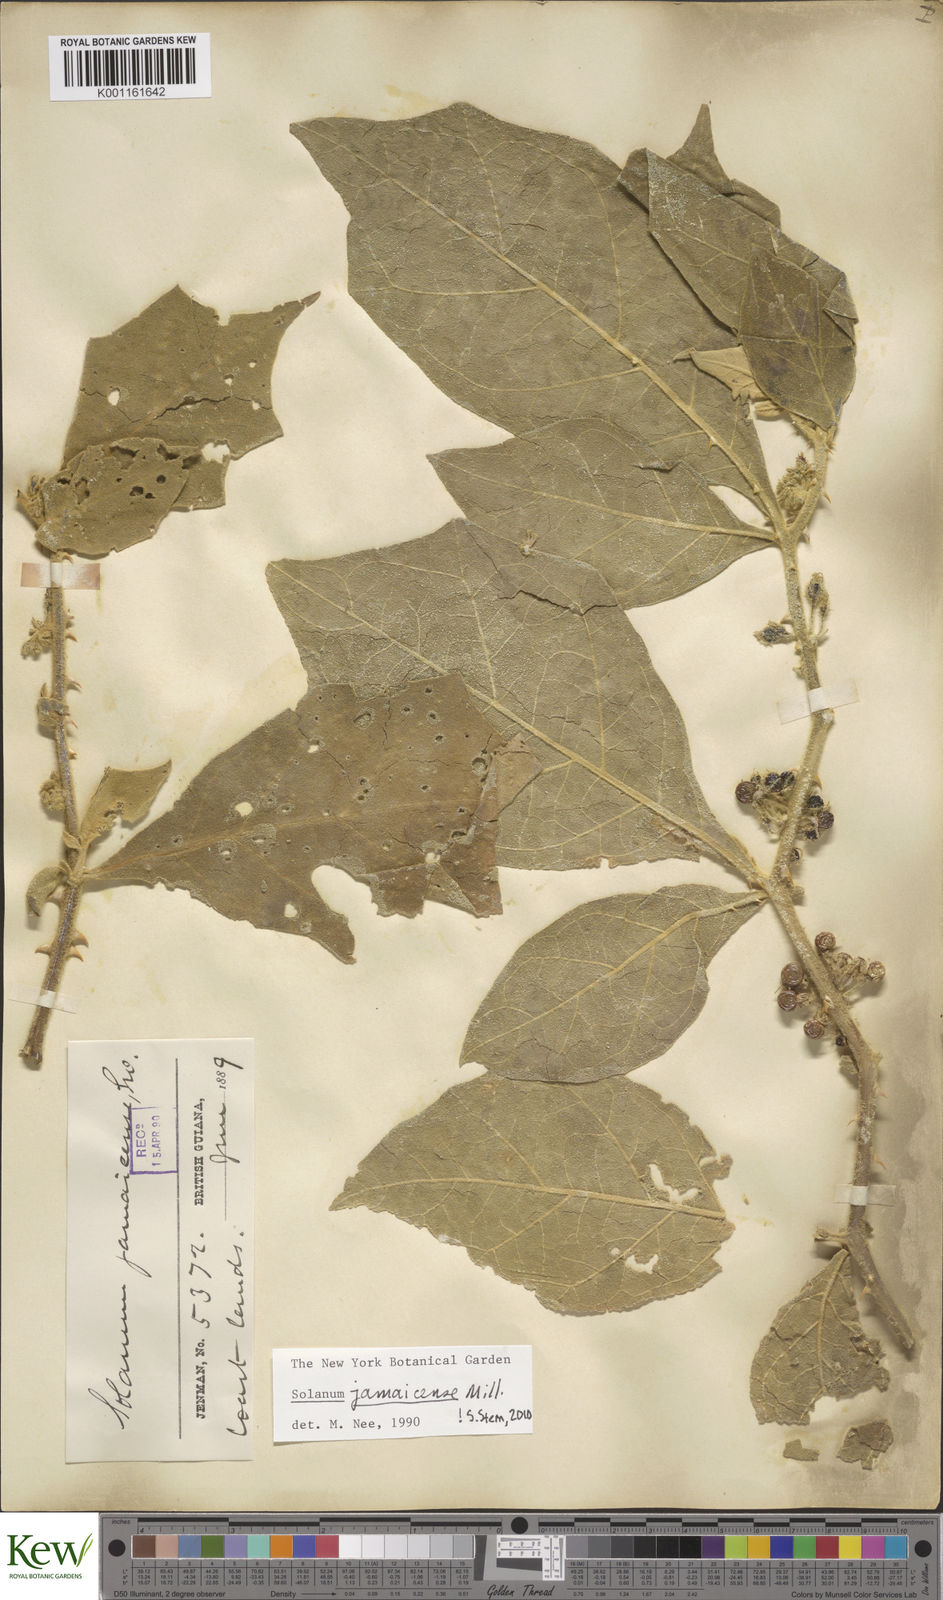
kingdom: Plantae
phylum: Tracheophyta
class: Magnoliopsida
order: Solanales
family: Solanaceae
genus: Solanum
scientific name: Solanum jamaicense
